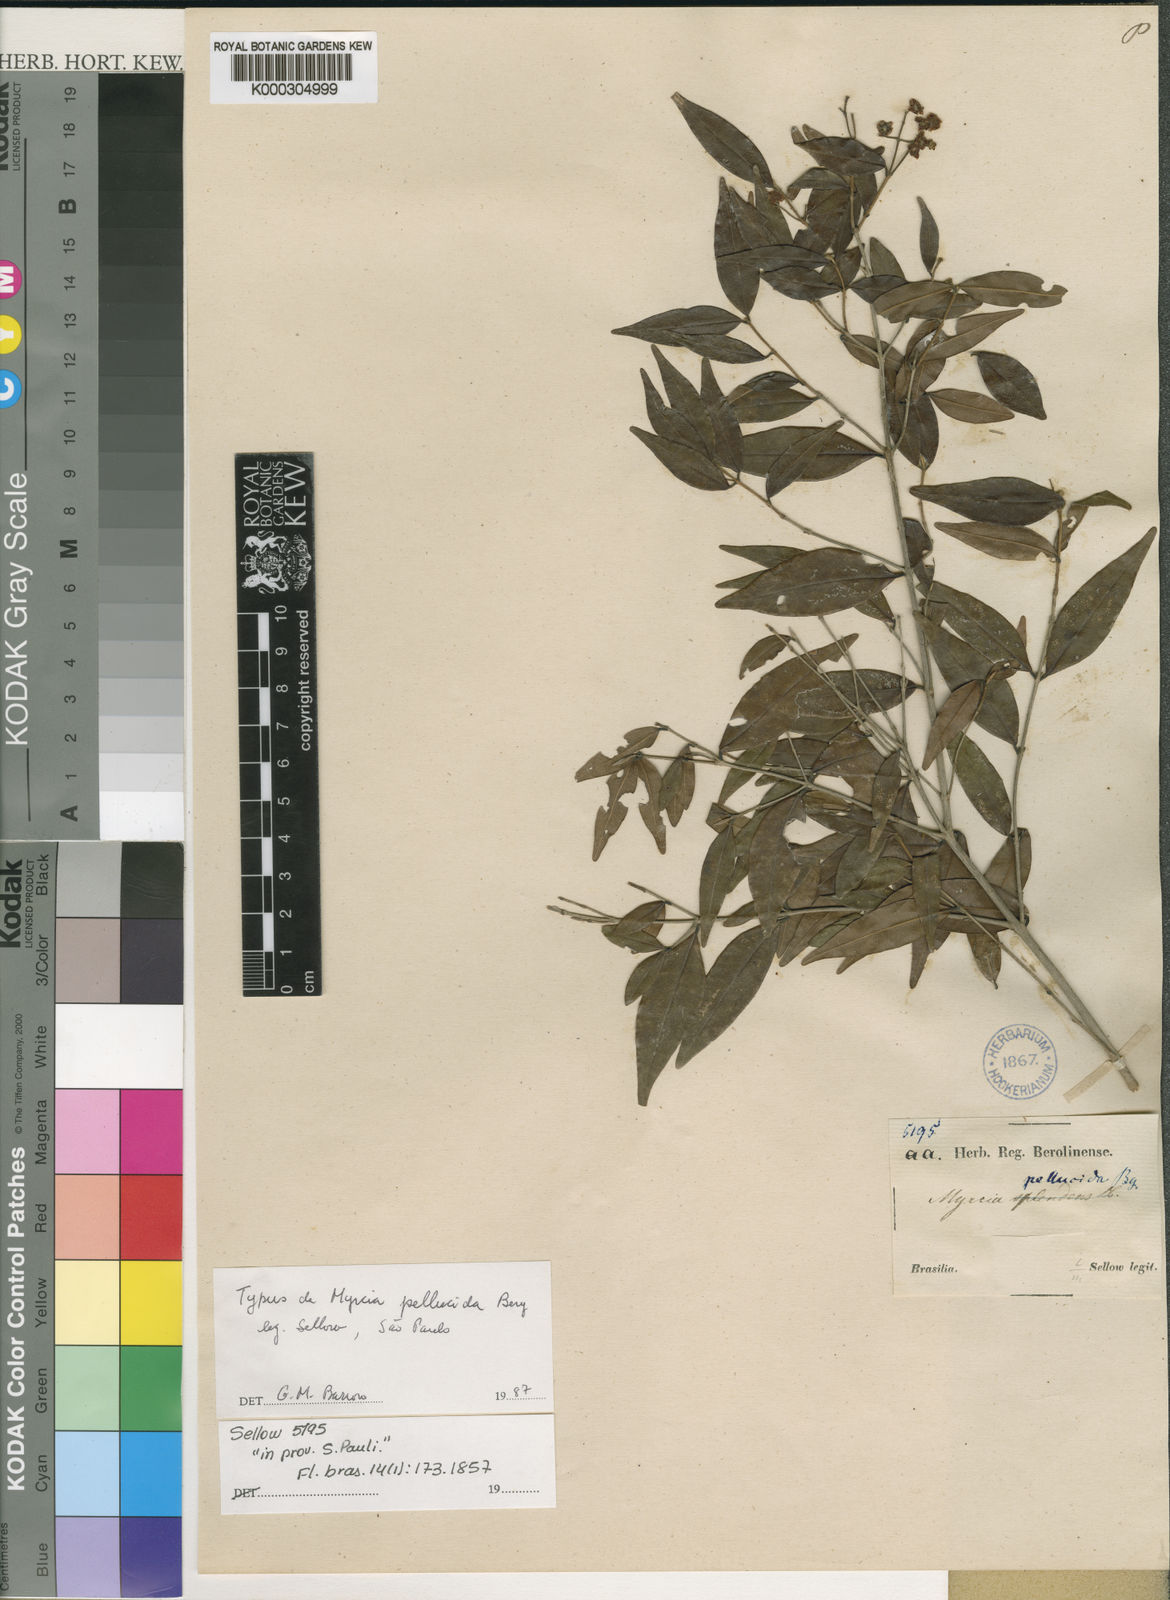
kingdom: Plantae
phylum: Tracheophyta
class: Magnoliopsida
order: Myrtales
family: Myrtaceae
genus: Myrcia
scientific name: Myrcia splendens
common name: Surinam cherry
